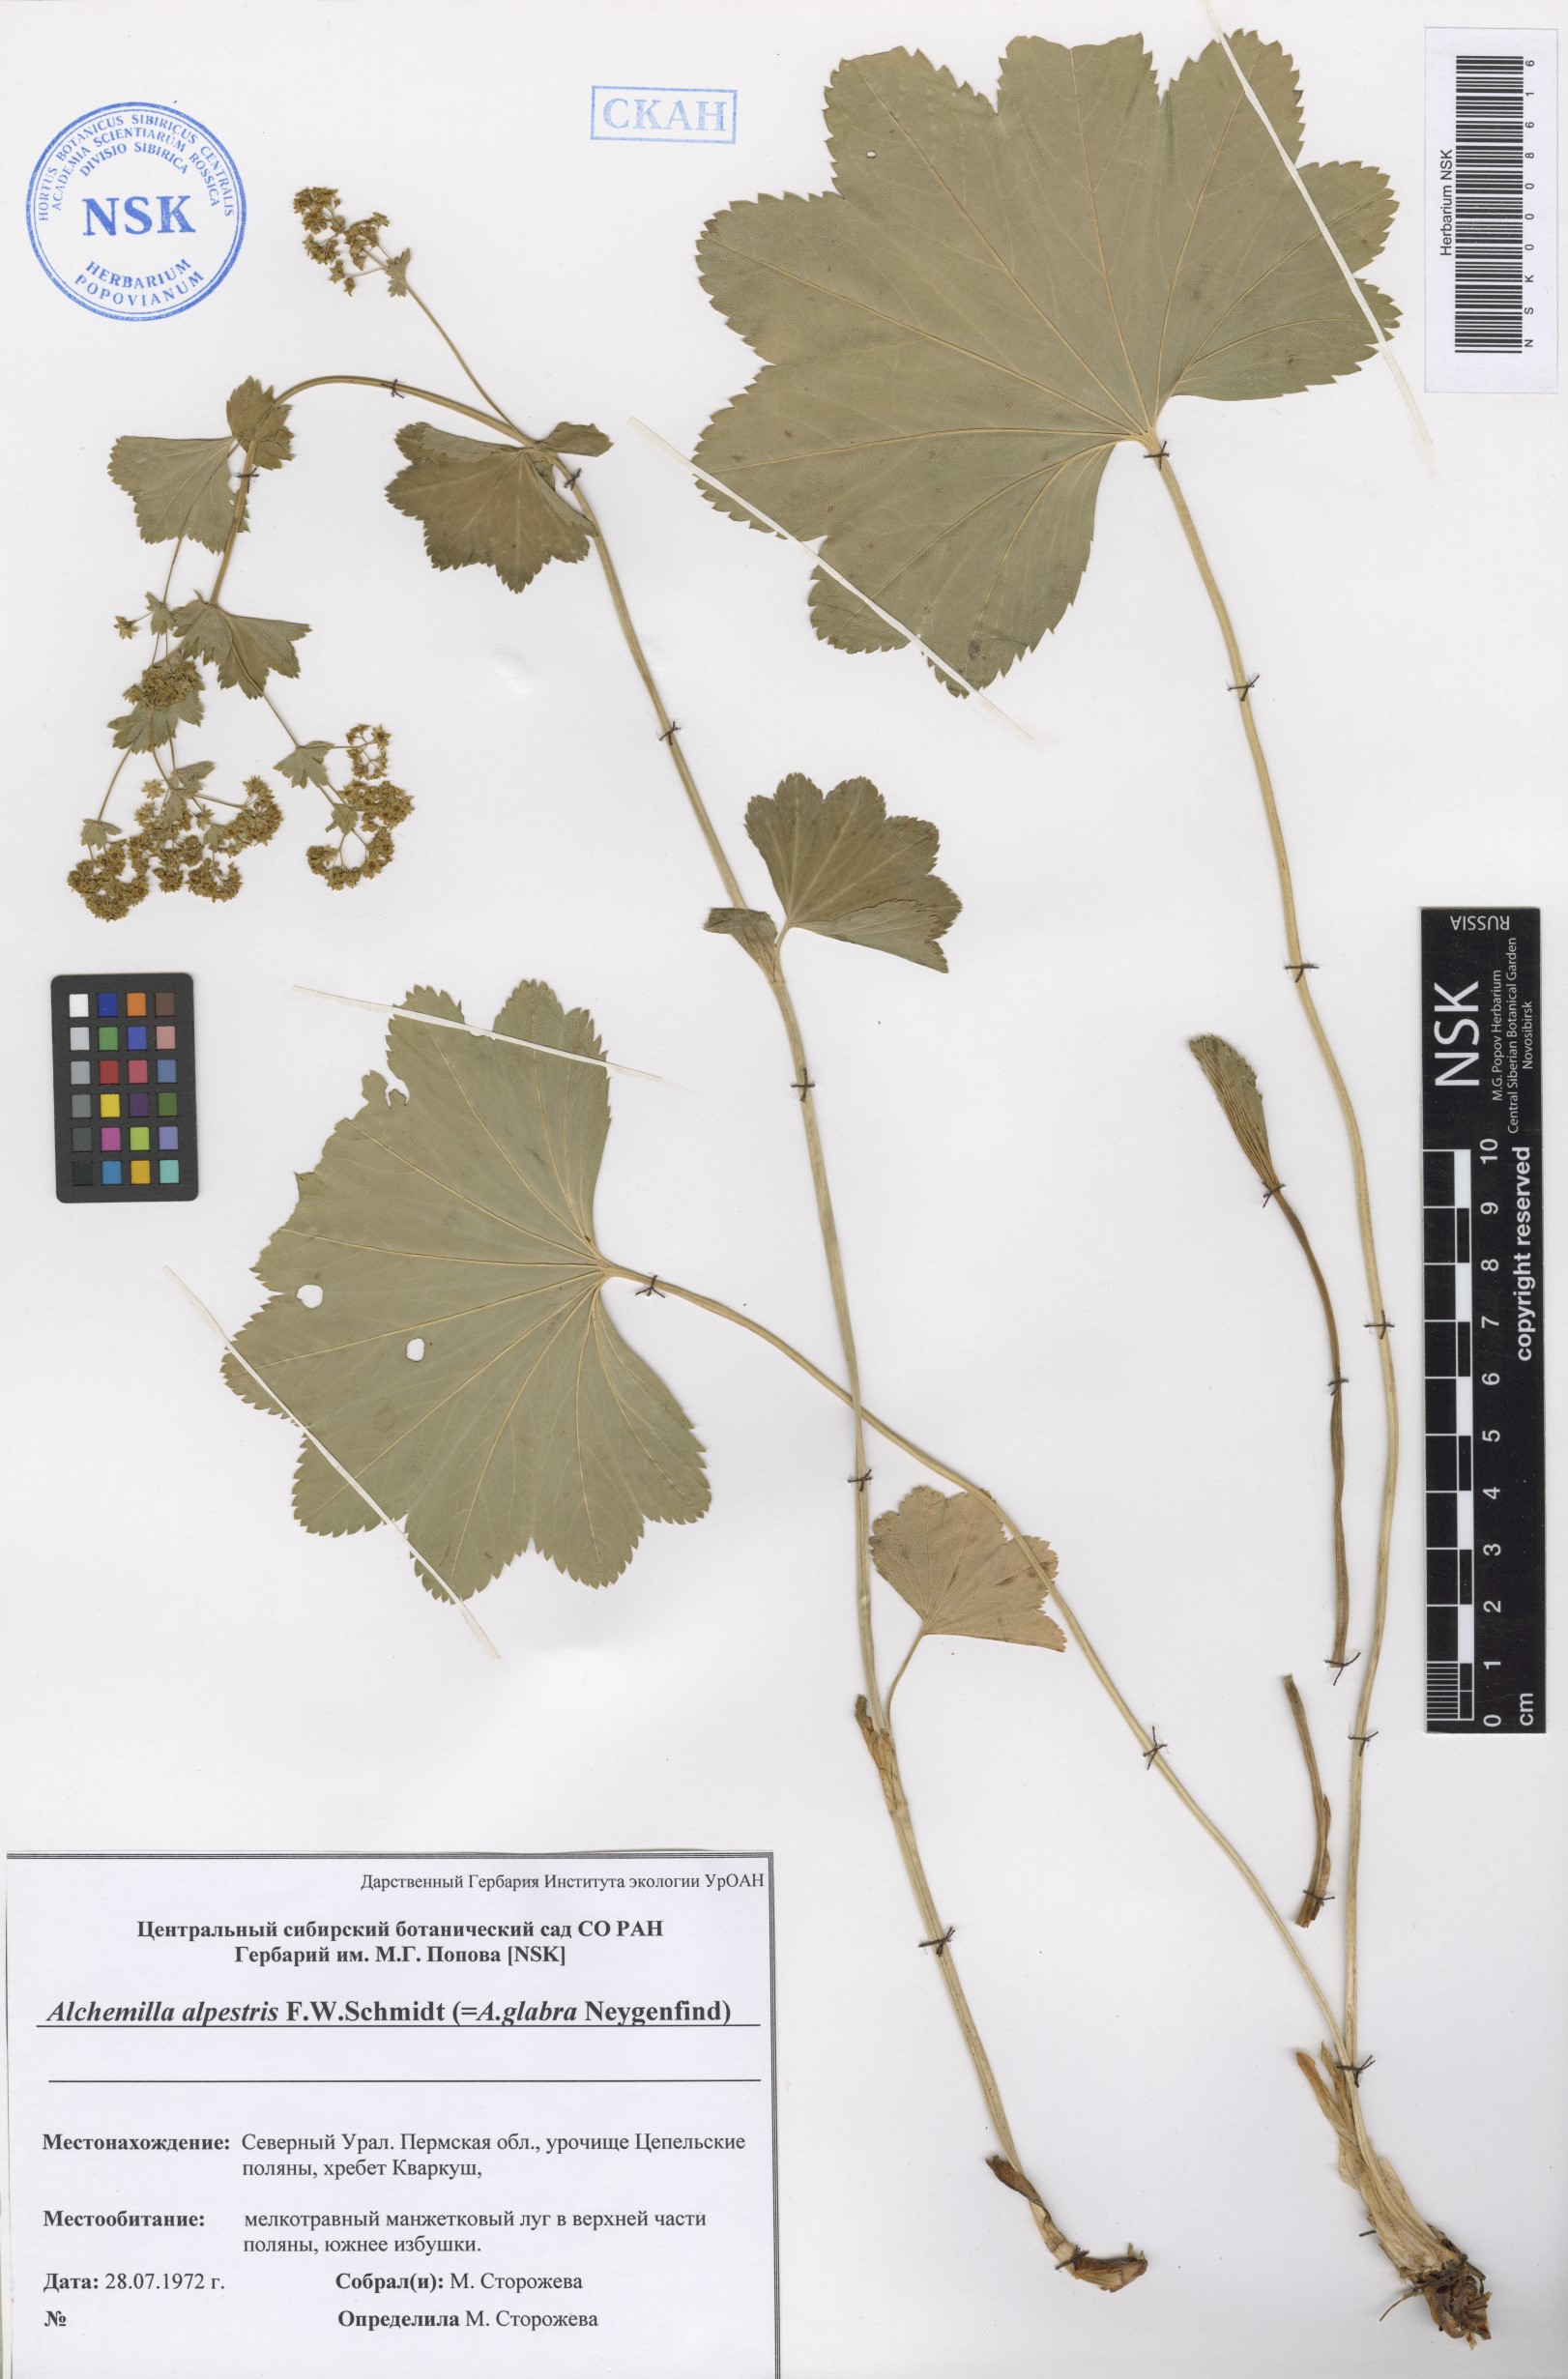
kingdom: Plantae
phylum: Tracheophyta
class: Magnoliopsida
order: Rosales
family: Rosaceae
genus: Alchemilla
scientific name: Alchemilla glabra
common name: Smooth lady's-mantle
